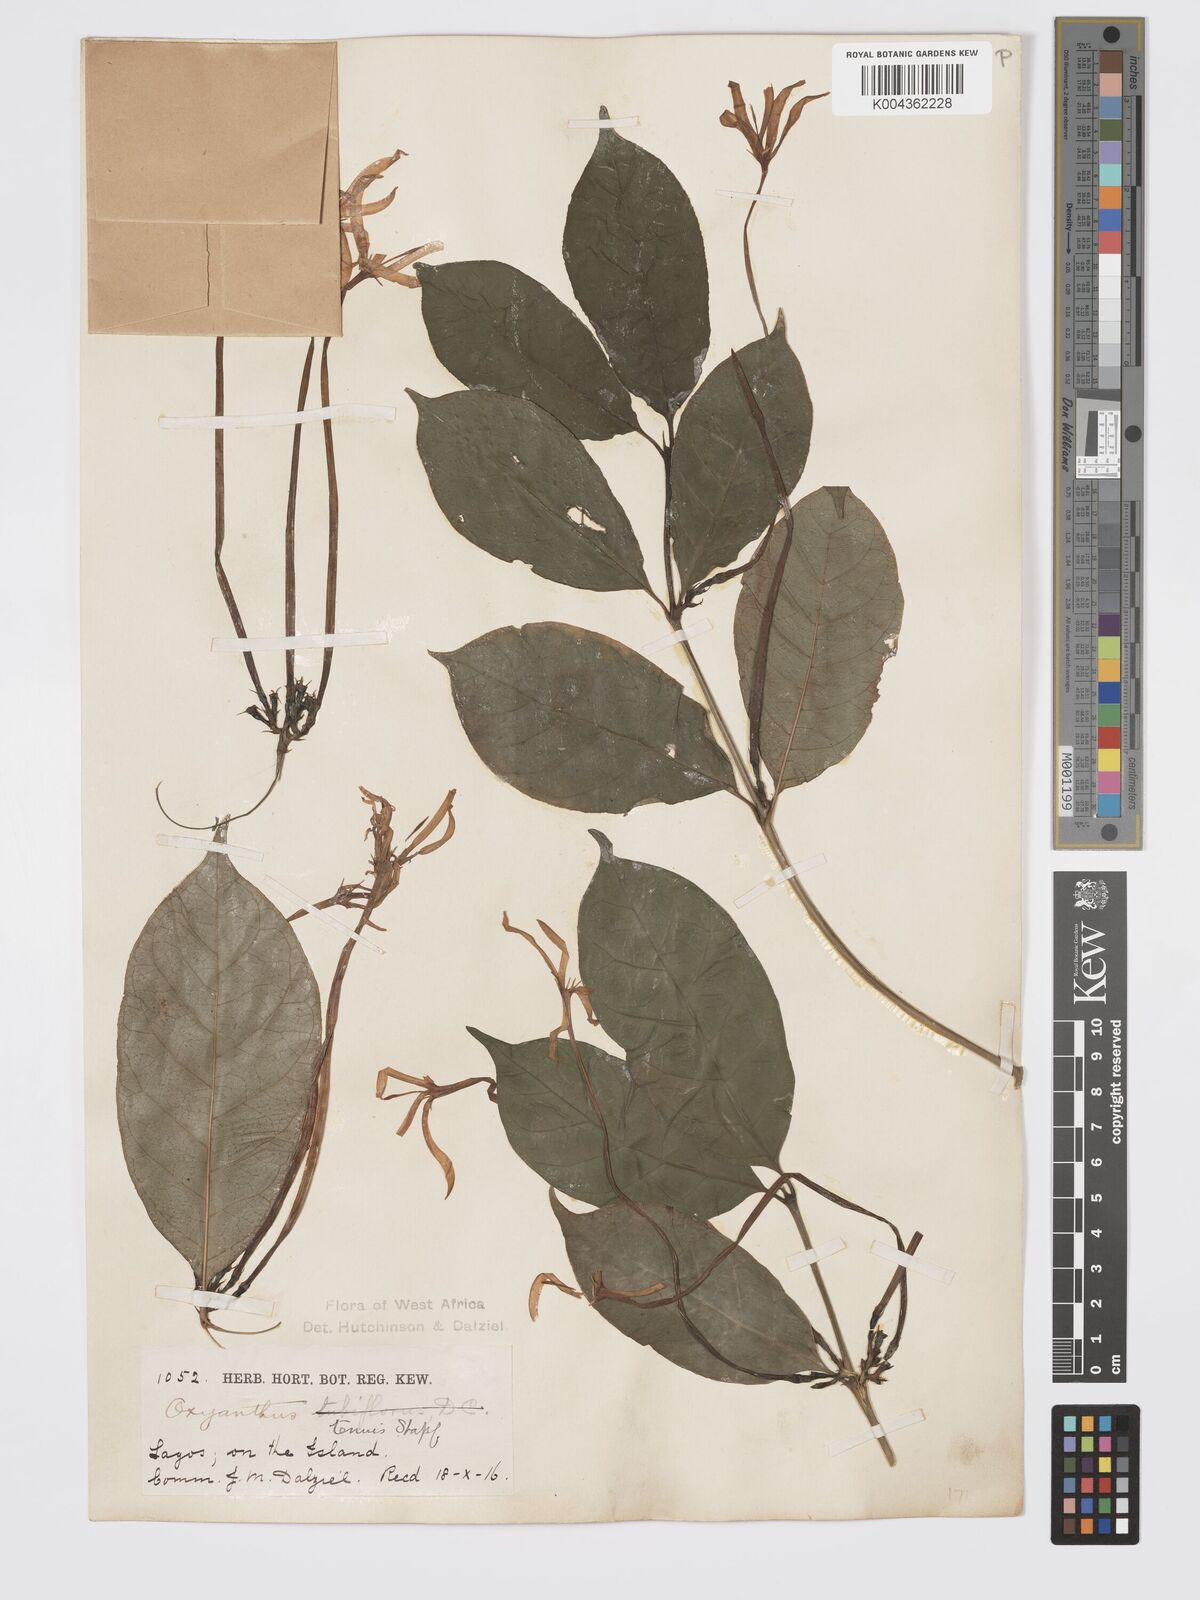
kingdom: Plantae
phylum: Tracheophyta
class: Magnoliopsida
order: Gentianales
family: Rubiaceae
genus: Oxyanthus
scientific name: Oxyanthus subpunctatus
